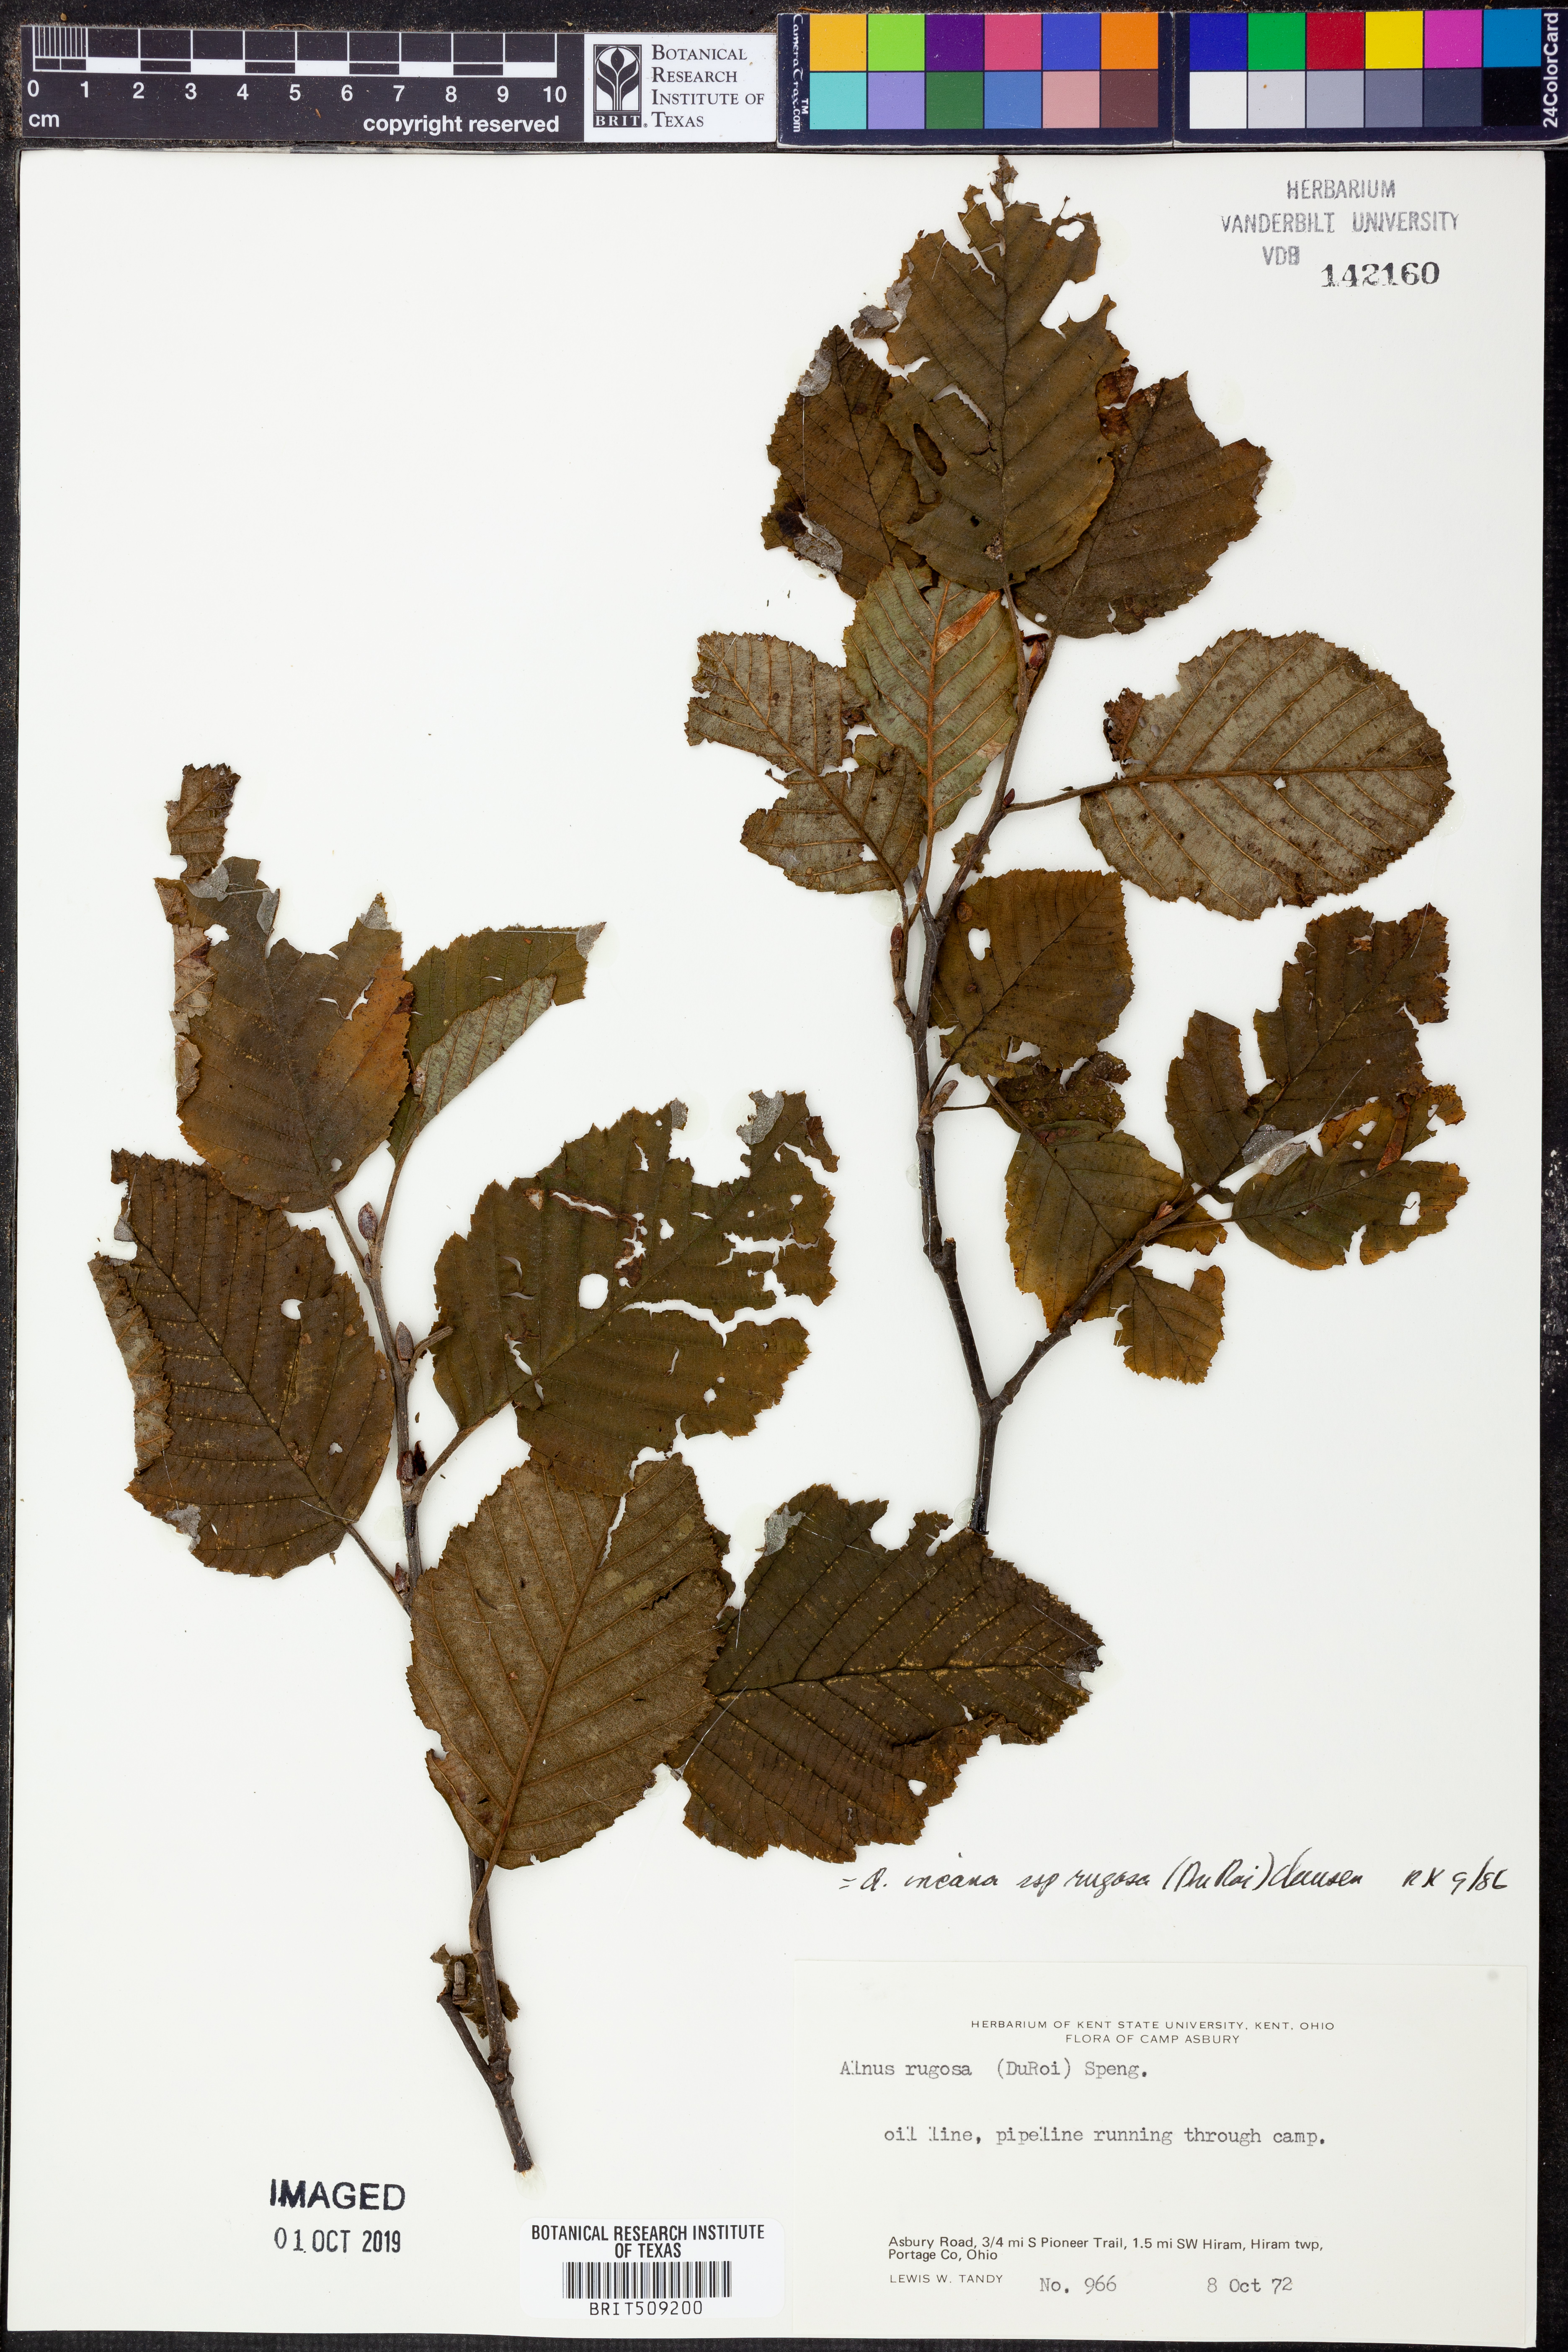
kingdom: Plantae
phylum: Tracheophyta
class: Magnoliopsida
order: Fagales
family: Betulaceae
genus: Alnus
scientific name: Alnus incana
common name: Grey alder
